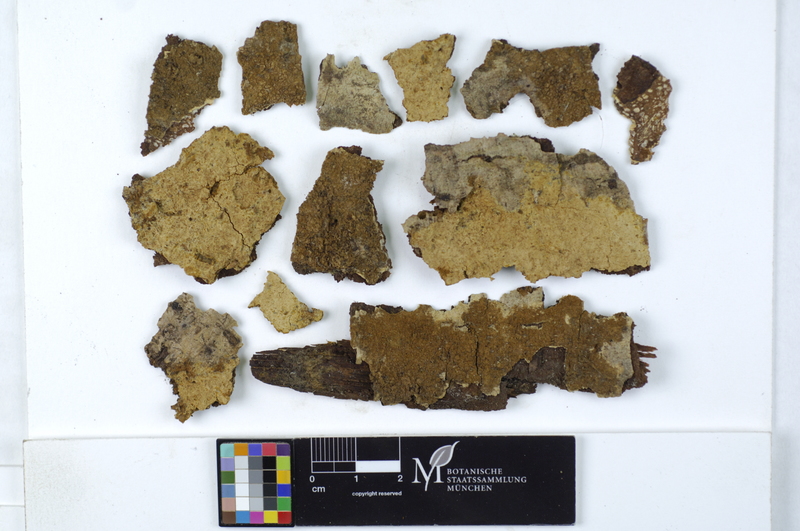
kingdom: Plantae
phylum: Tracheophyta
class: Magnoliopsida
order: Fagales
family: Betulaceae
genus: Alnus
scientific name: Alnus
